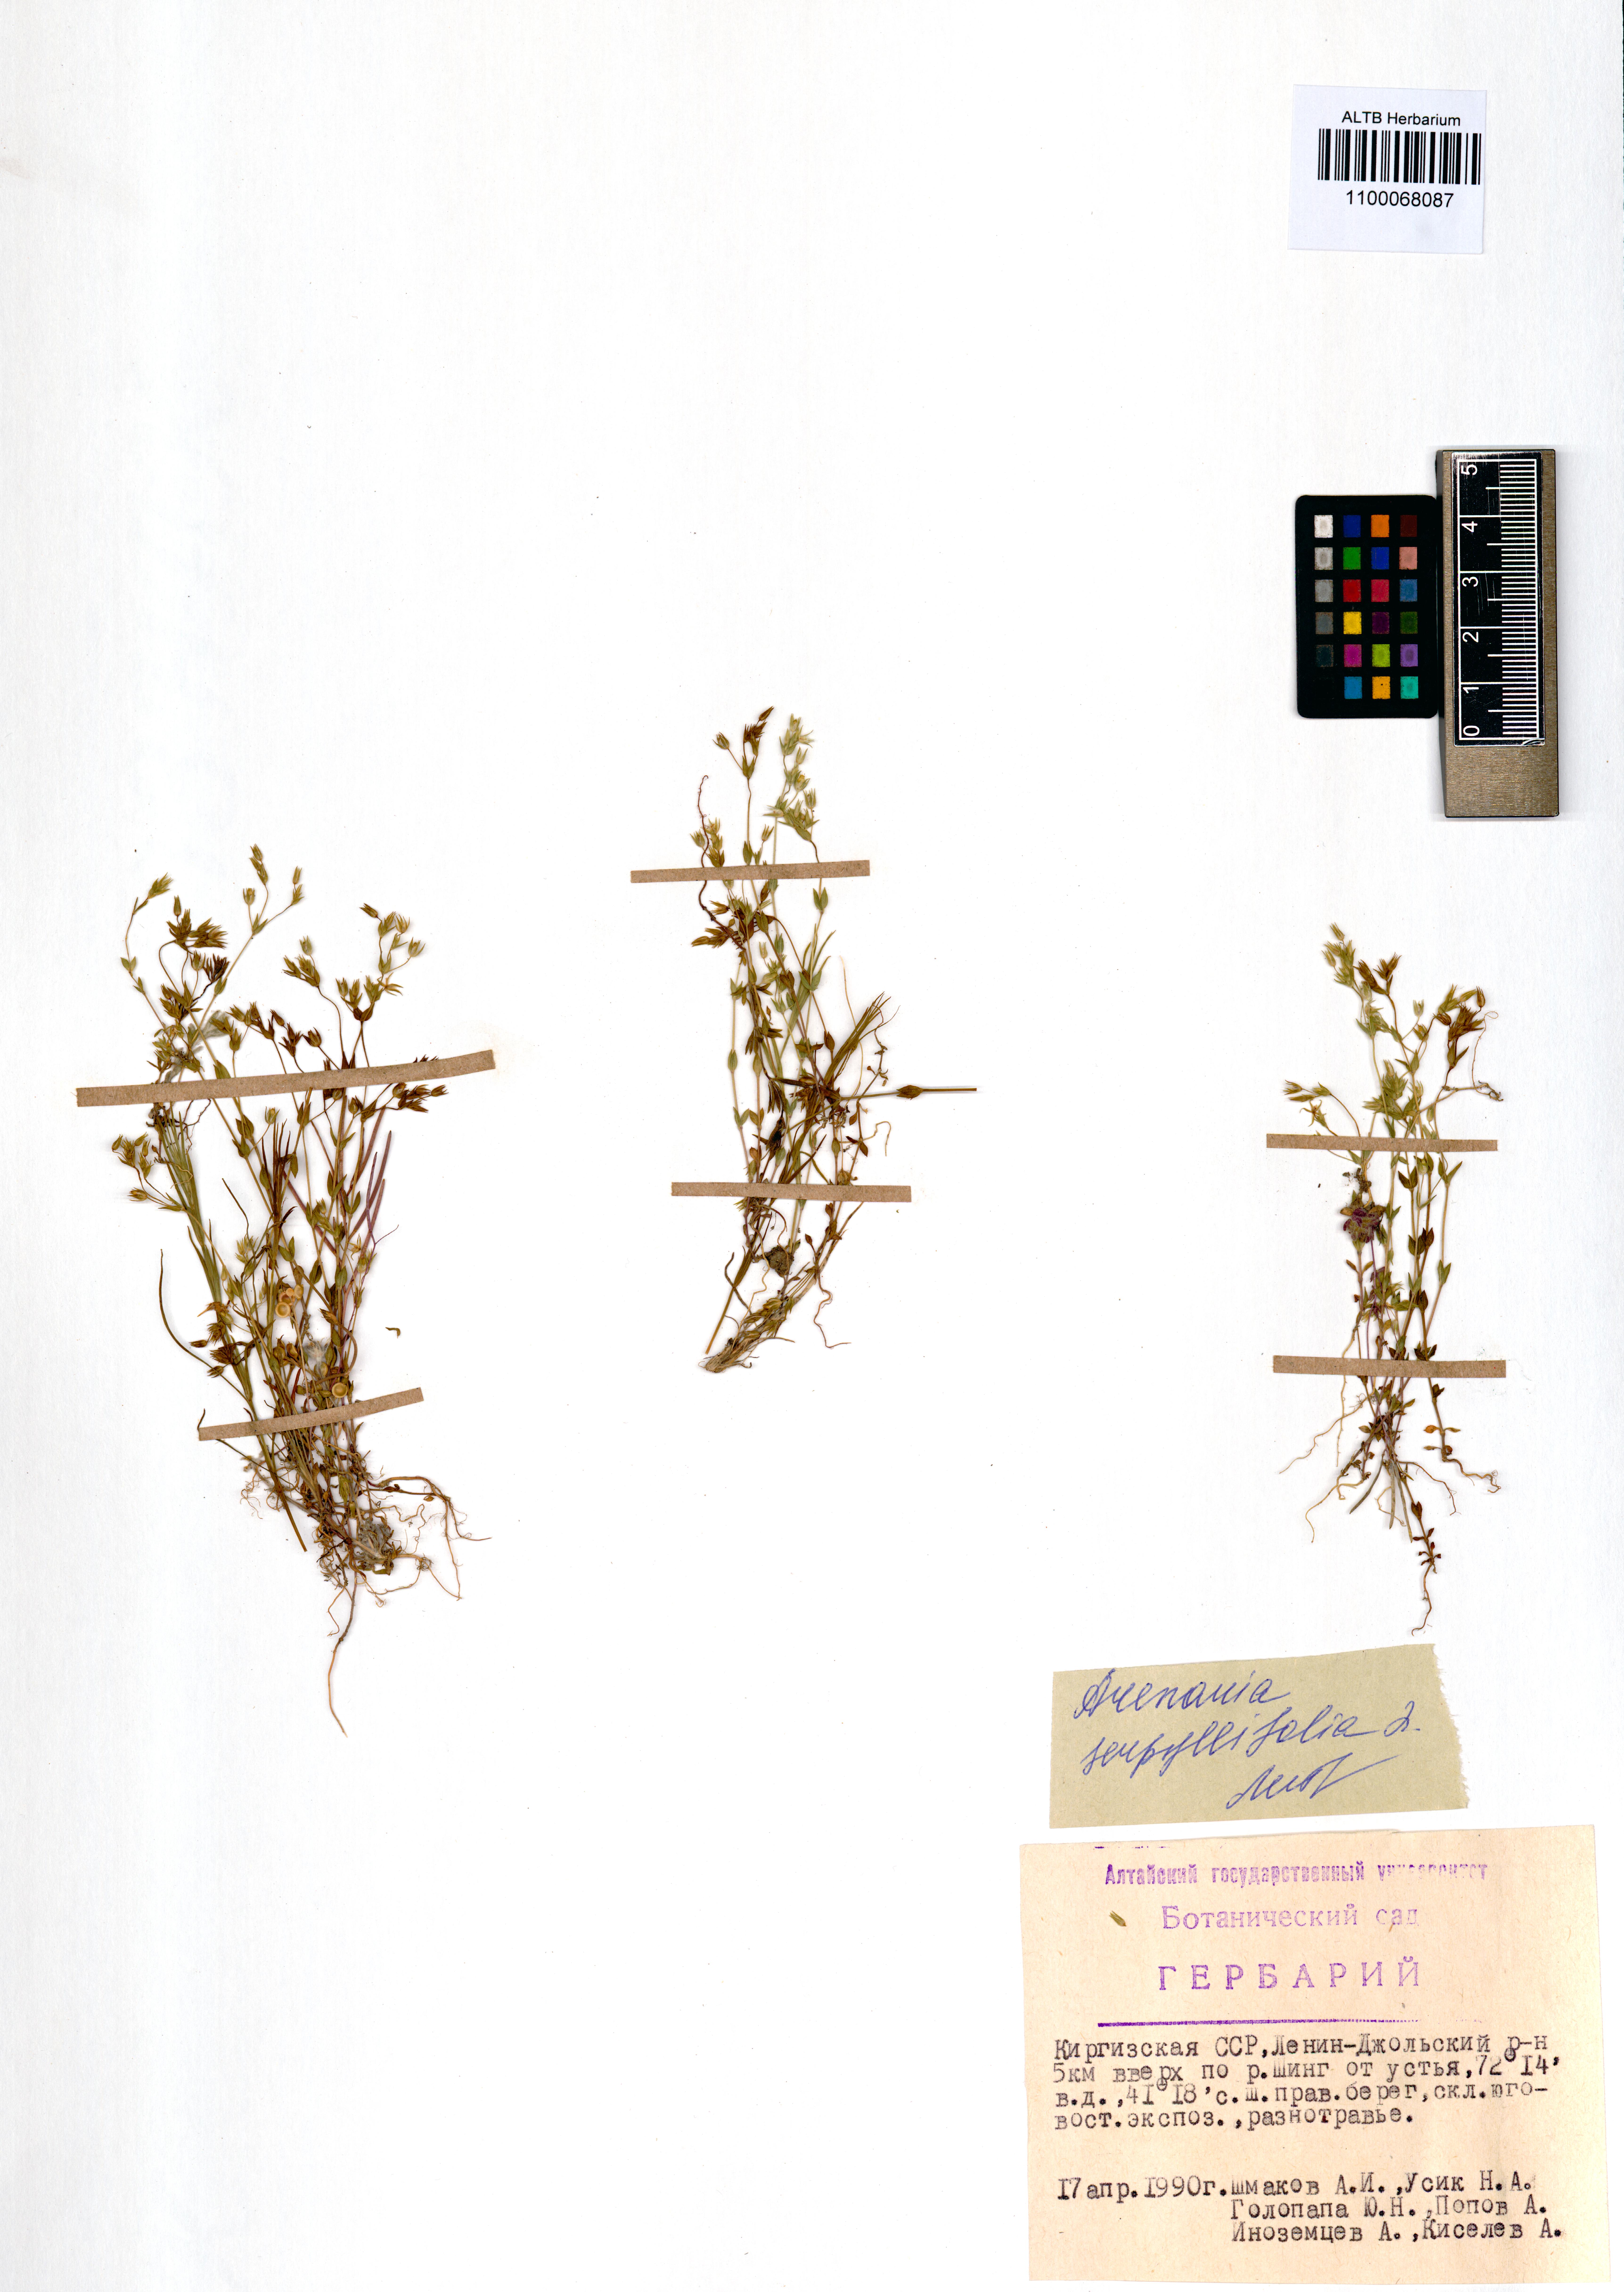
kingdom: Plantae
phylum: Tracheophyta
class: Magnoliopsida
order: Caryophyllales
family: Caryophyllaceae
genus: Arenaria
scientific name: Arenaria serpyllifolia
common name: Thyme-leaved sandwort
